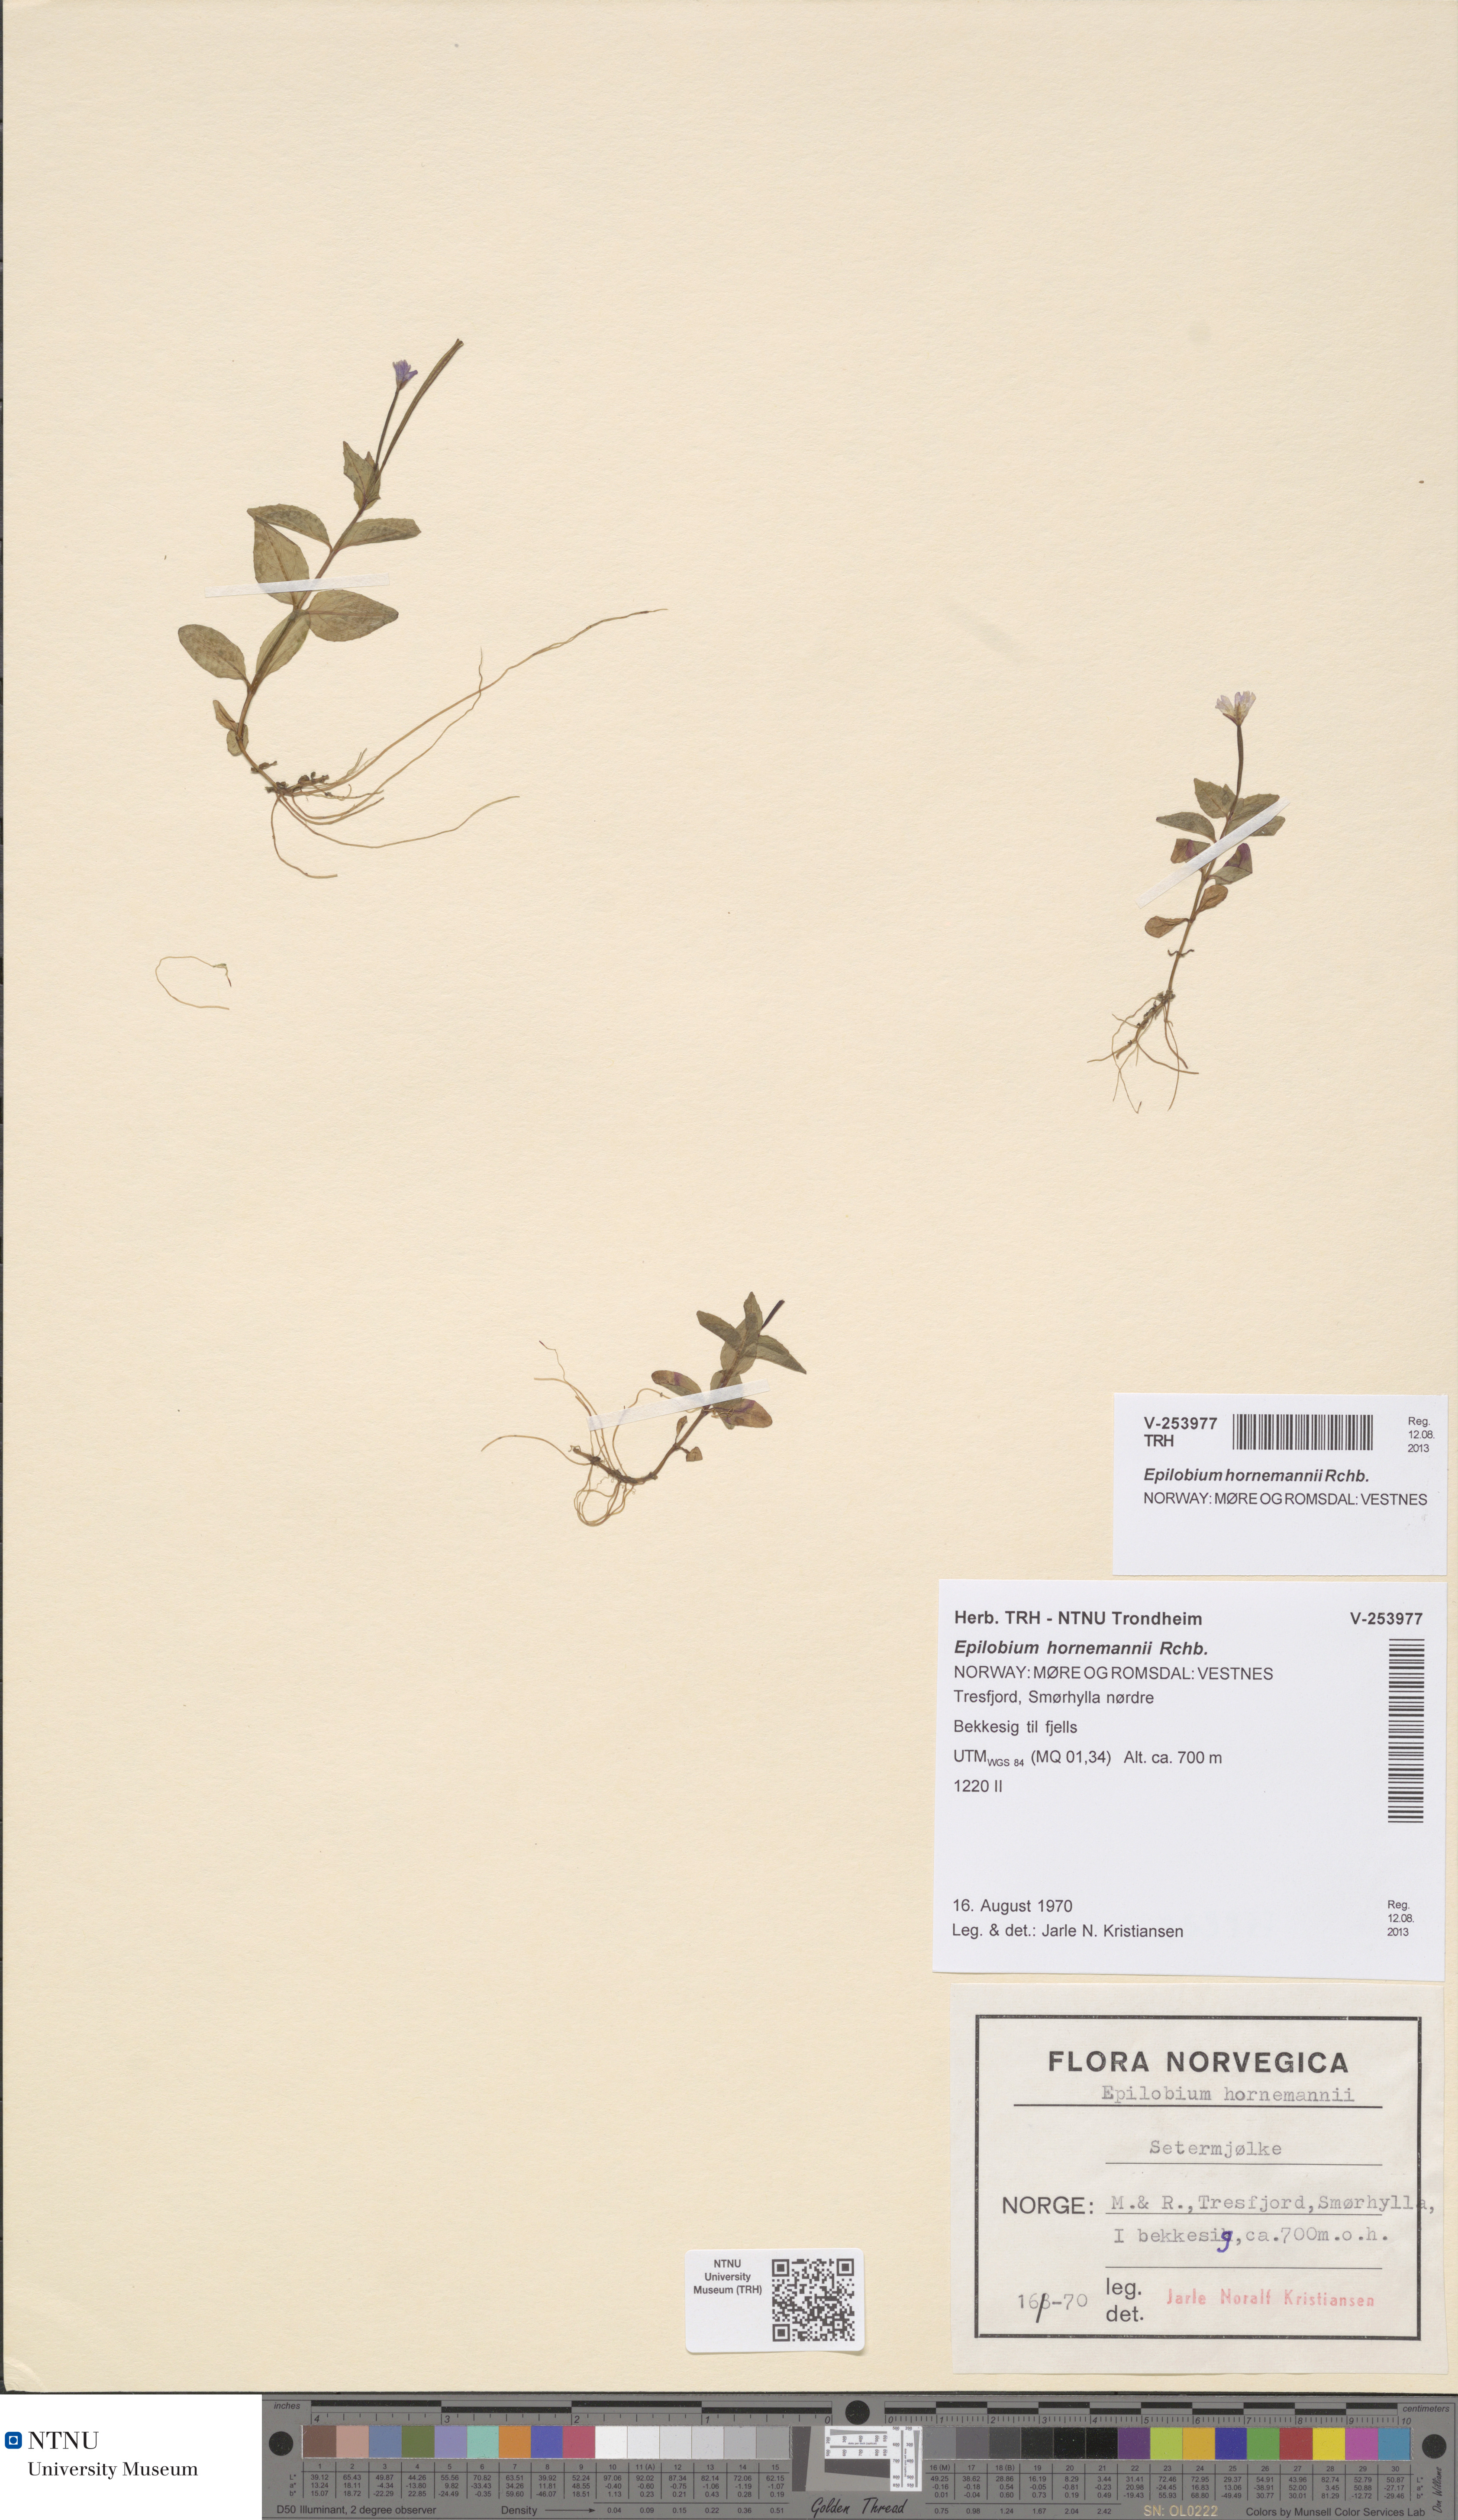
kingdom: Plantae
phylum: Tracheophyta
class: Magnoliopsida
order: Myrtales
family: Onagraceae
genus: Epilobium
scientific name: Epilobium hornemannii
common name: Hornemann's willowherb
